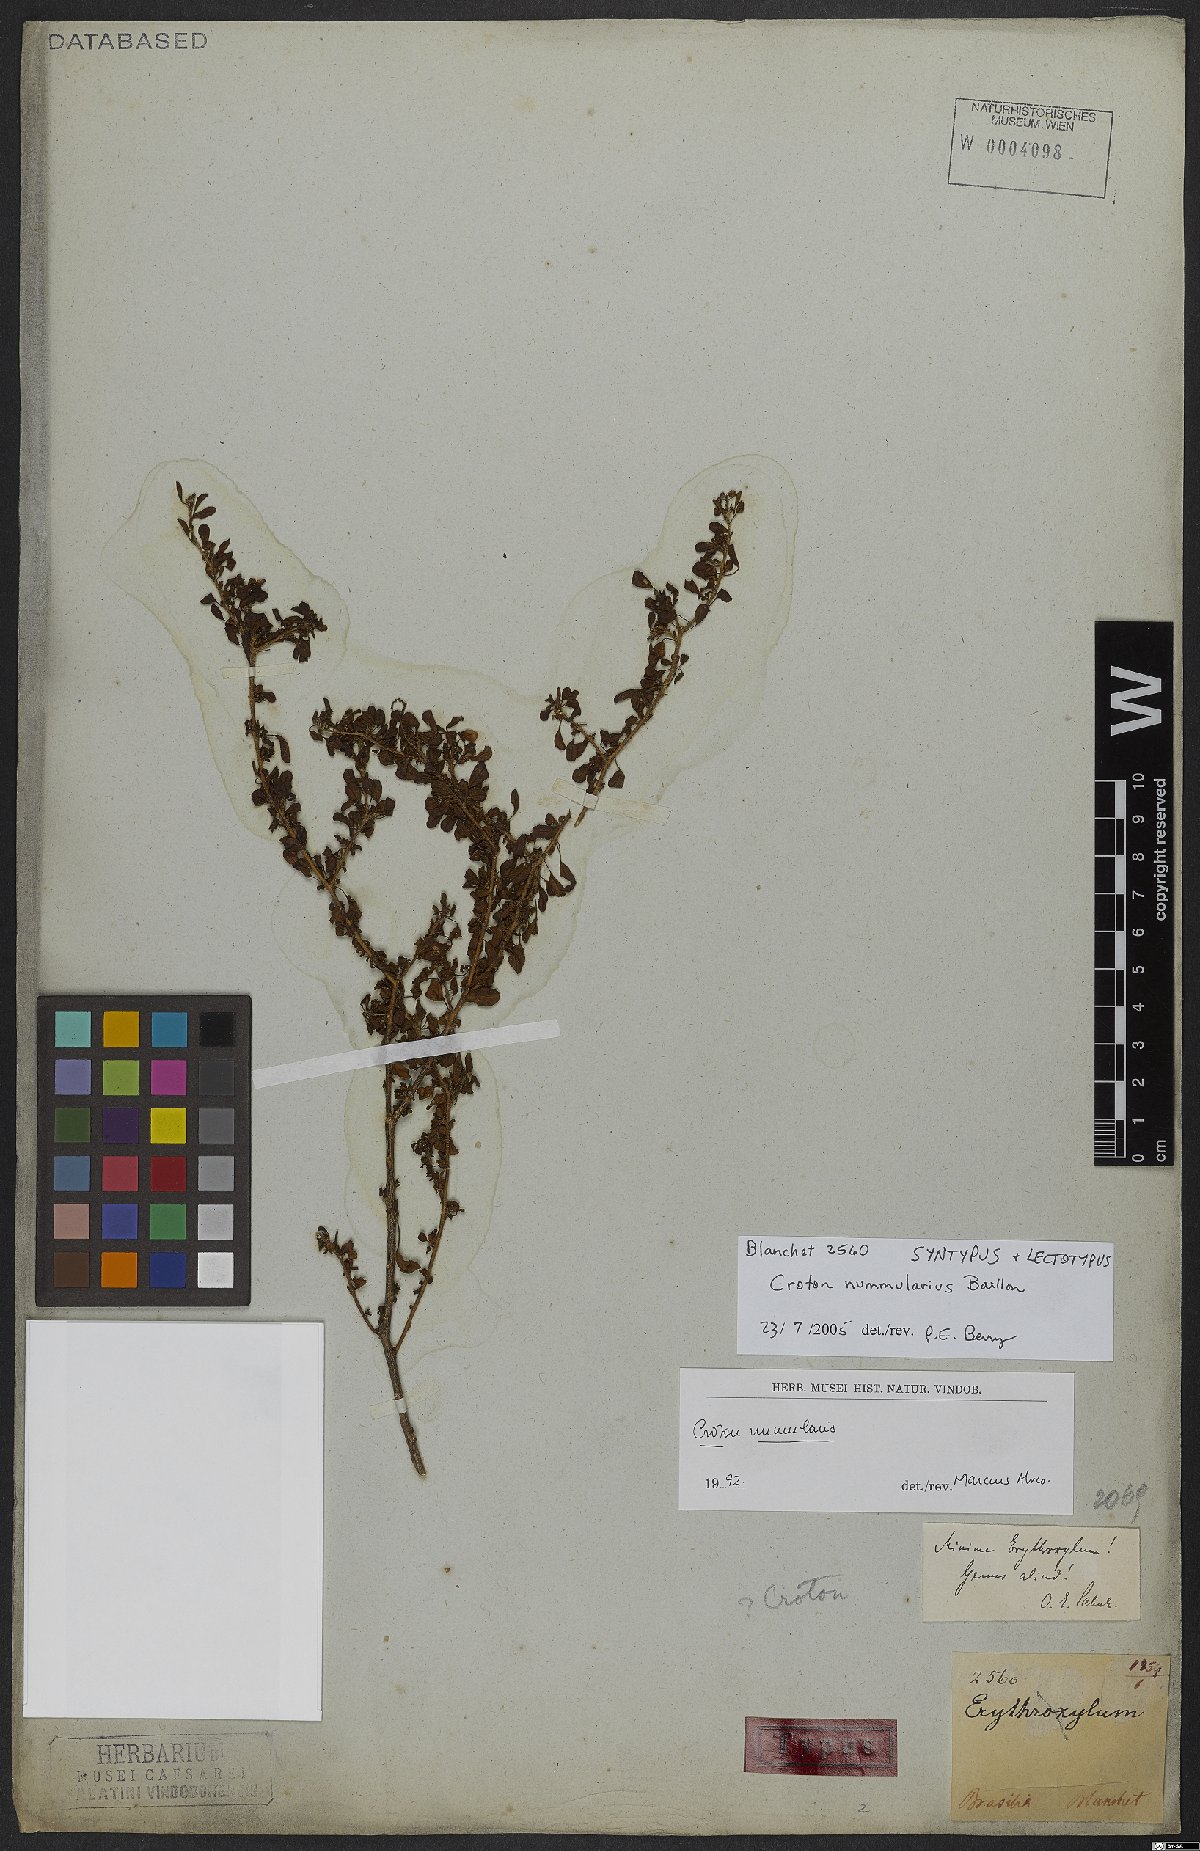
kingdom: Plantae
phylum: Tracheophyta
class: Magnoliopsida
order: Malpighiales
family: Euphorbiaceae
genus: Croton
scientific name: Croton nummularius
